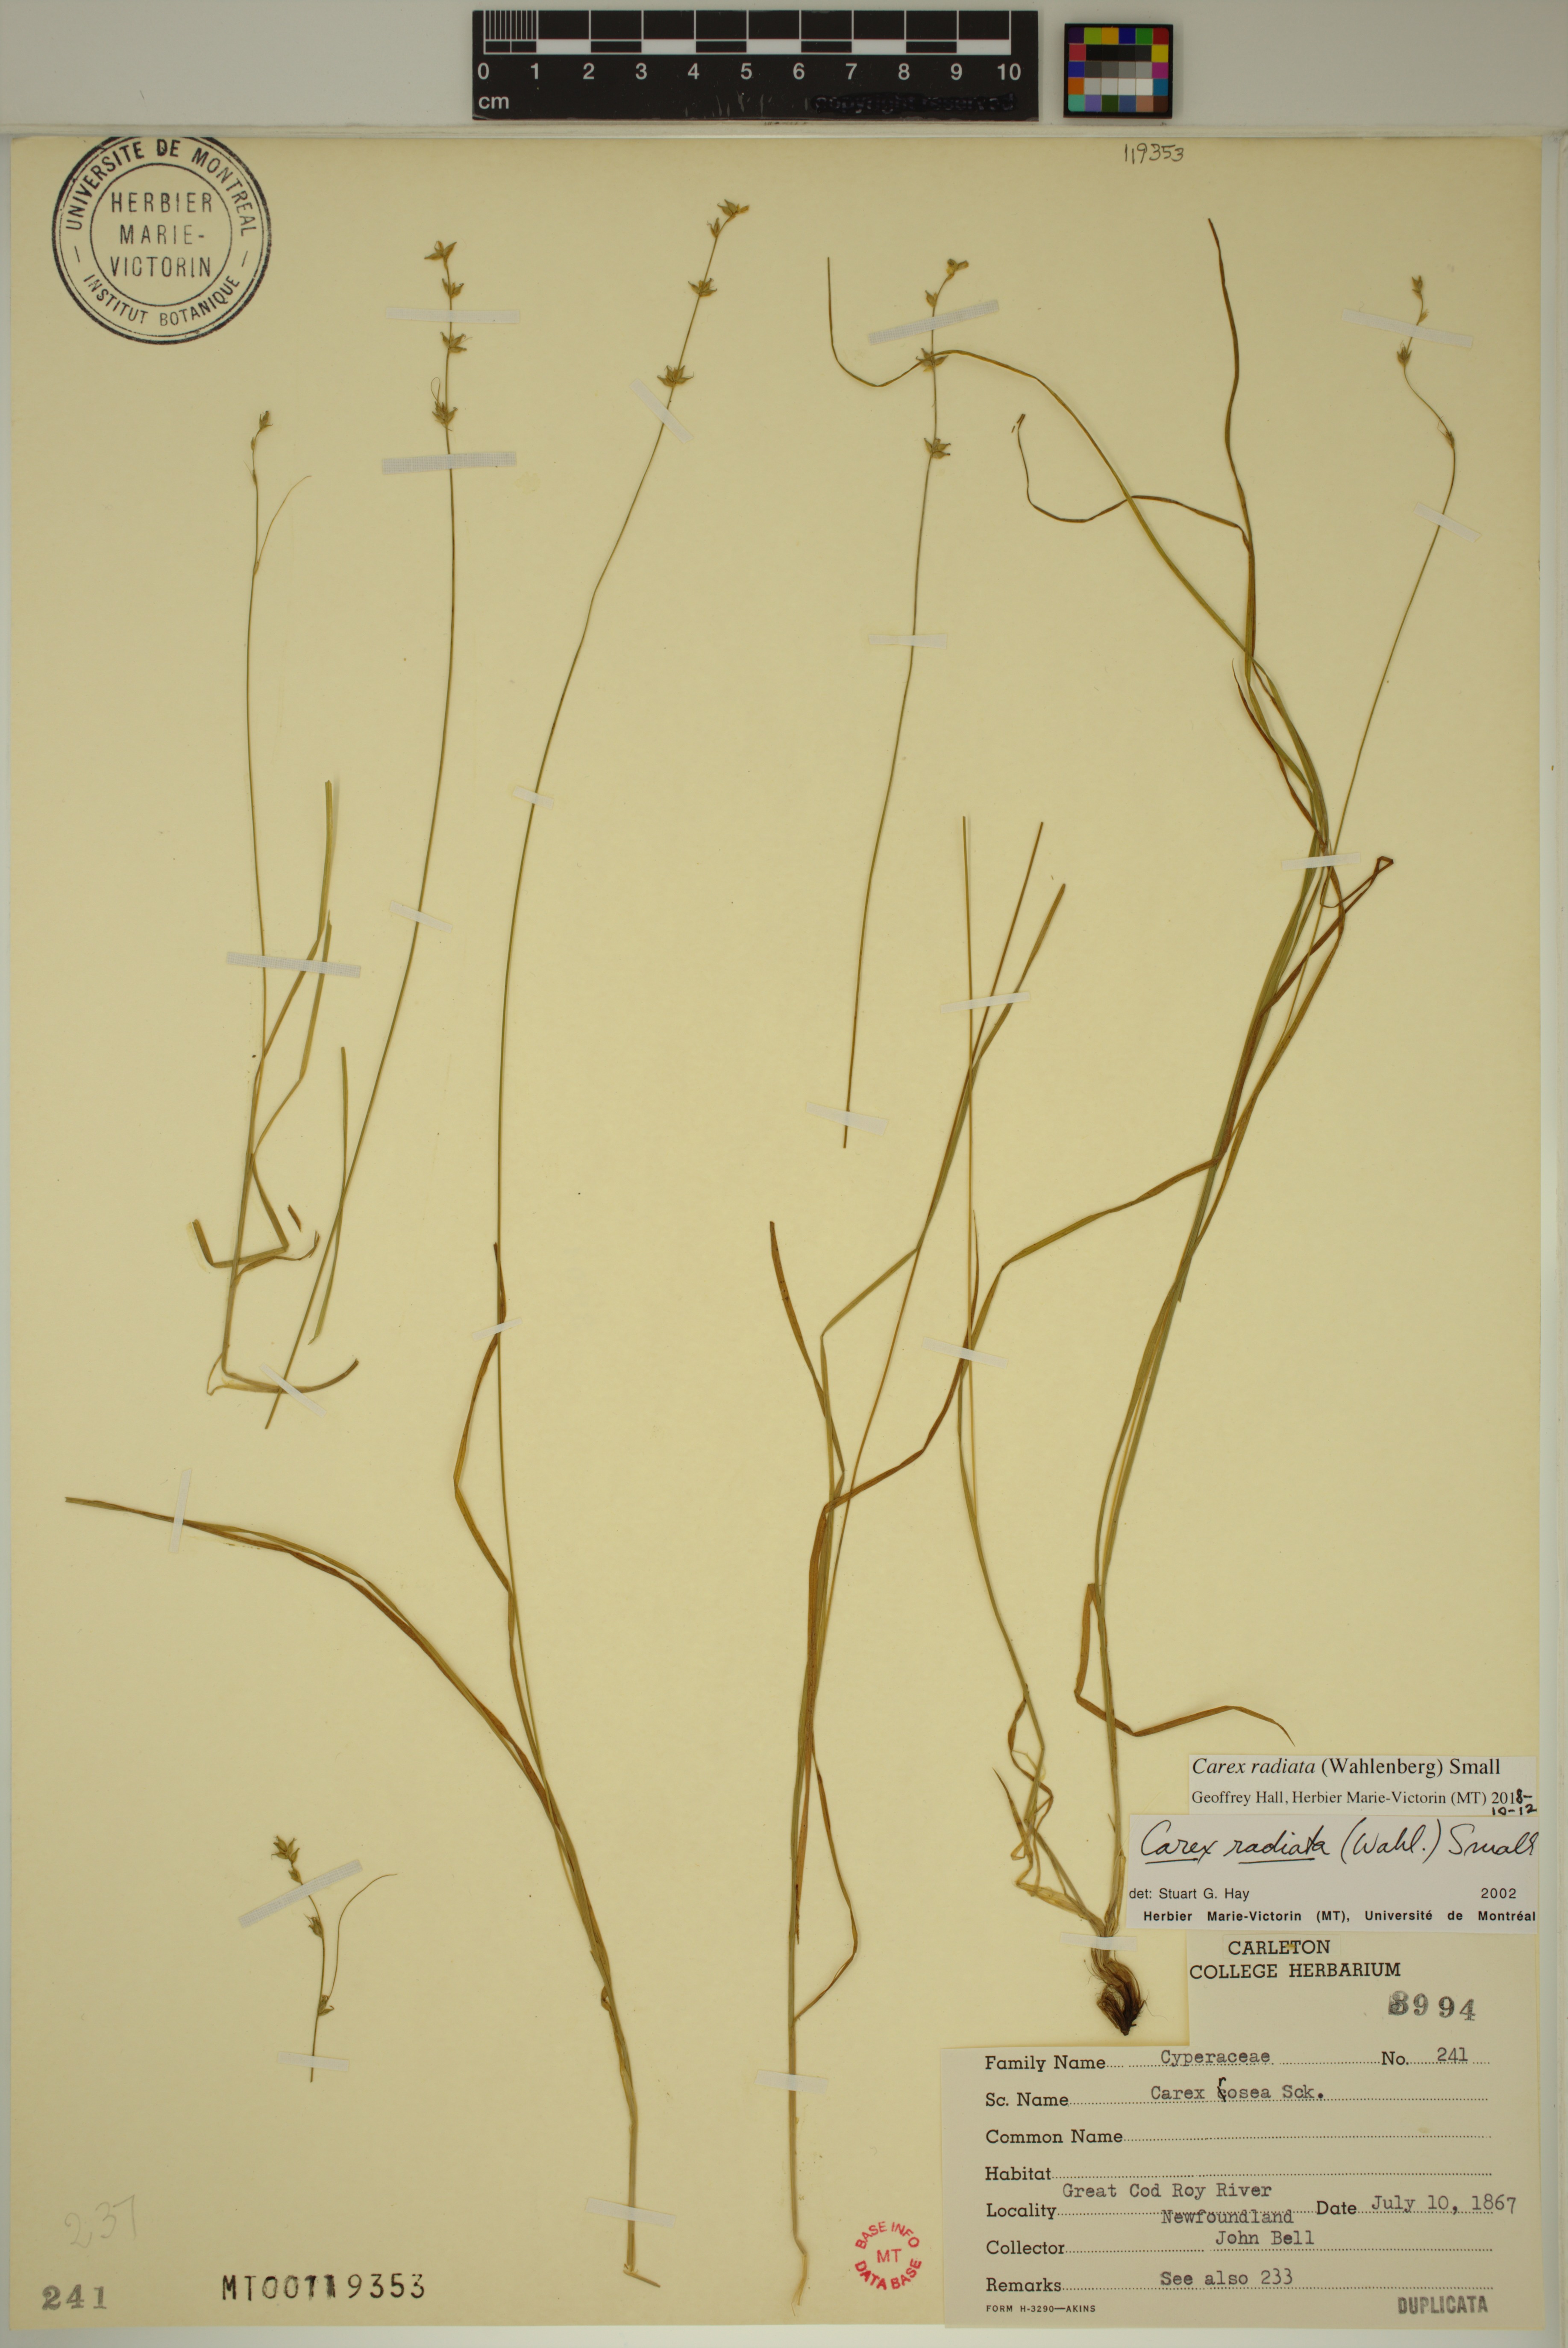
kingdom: Plantae
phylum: Tracheophyta
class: Liliopsida
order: Poales
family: Cyperaceae
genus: Carex
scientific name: Carex radiata
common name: Eastern star sedge
